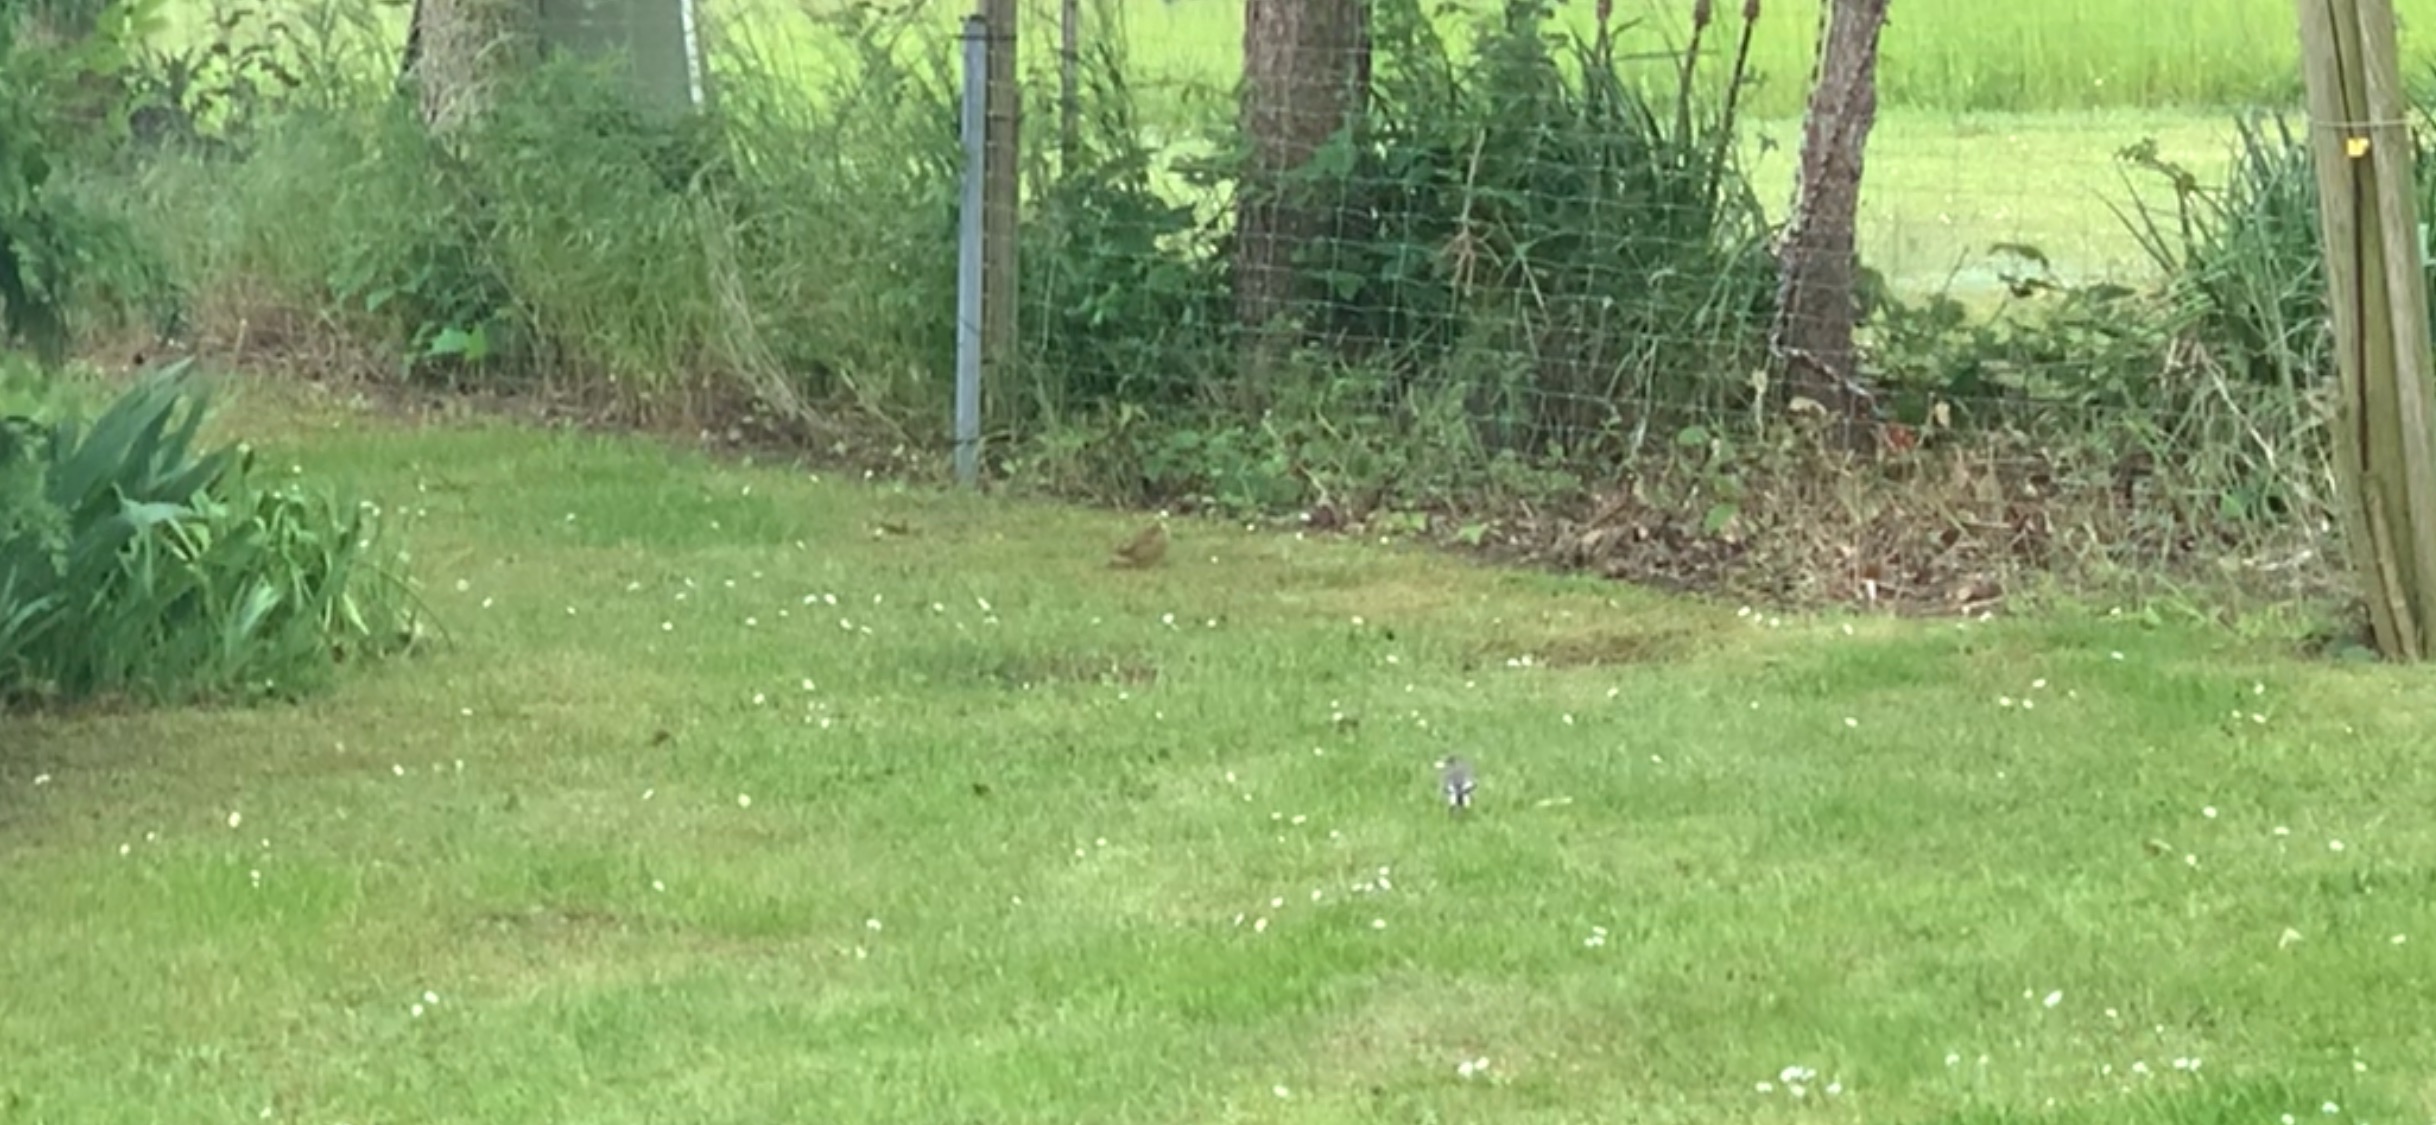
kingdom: Animalia
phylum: Chordata
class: Aves
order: Passeriformes
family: Emberizidae
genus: Emberiza
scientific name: Emberiza citrinella
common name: Gulspurv
